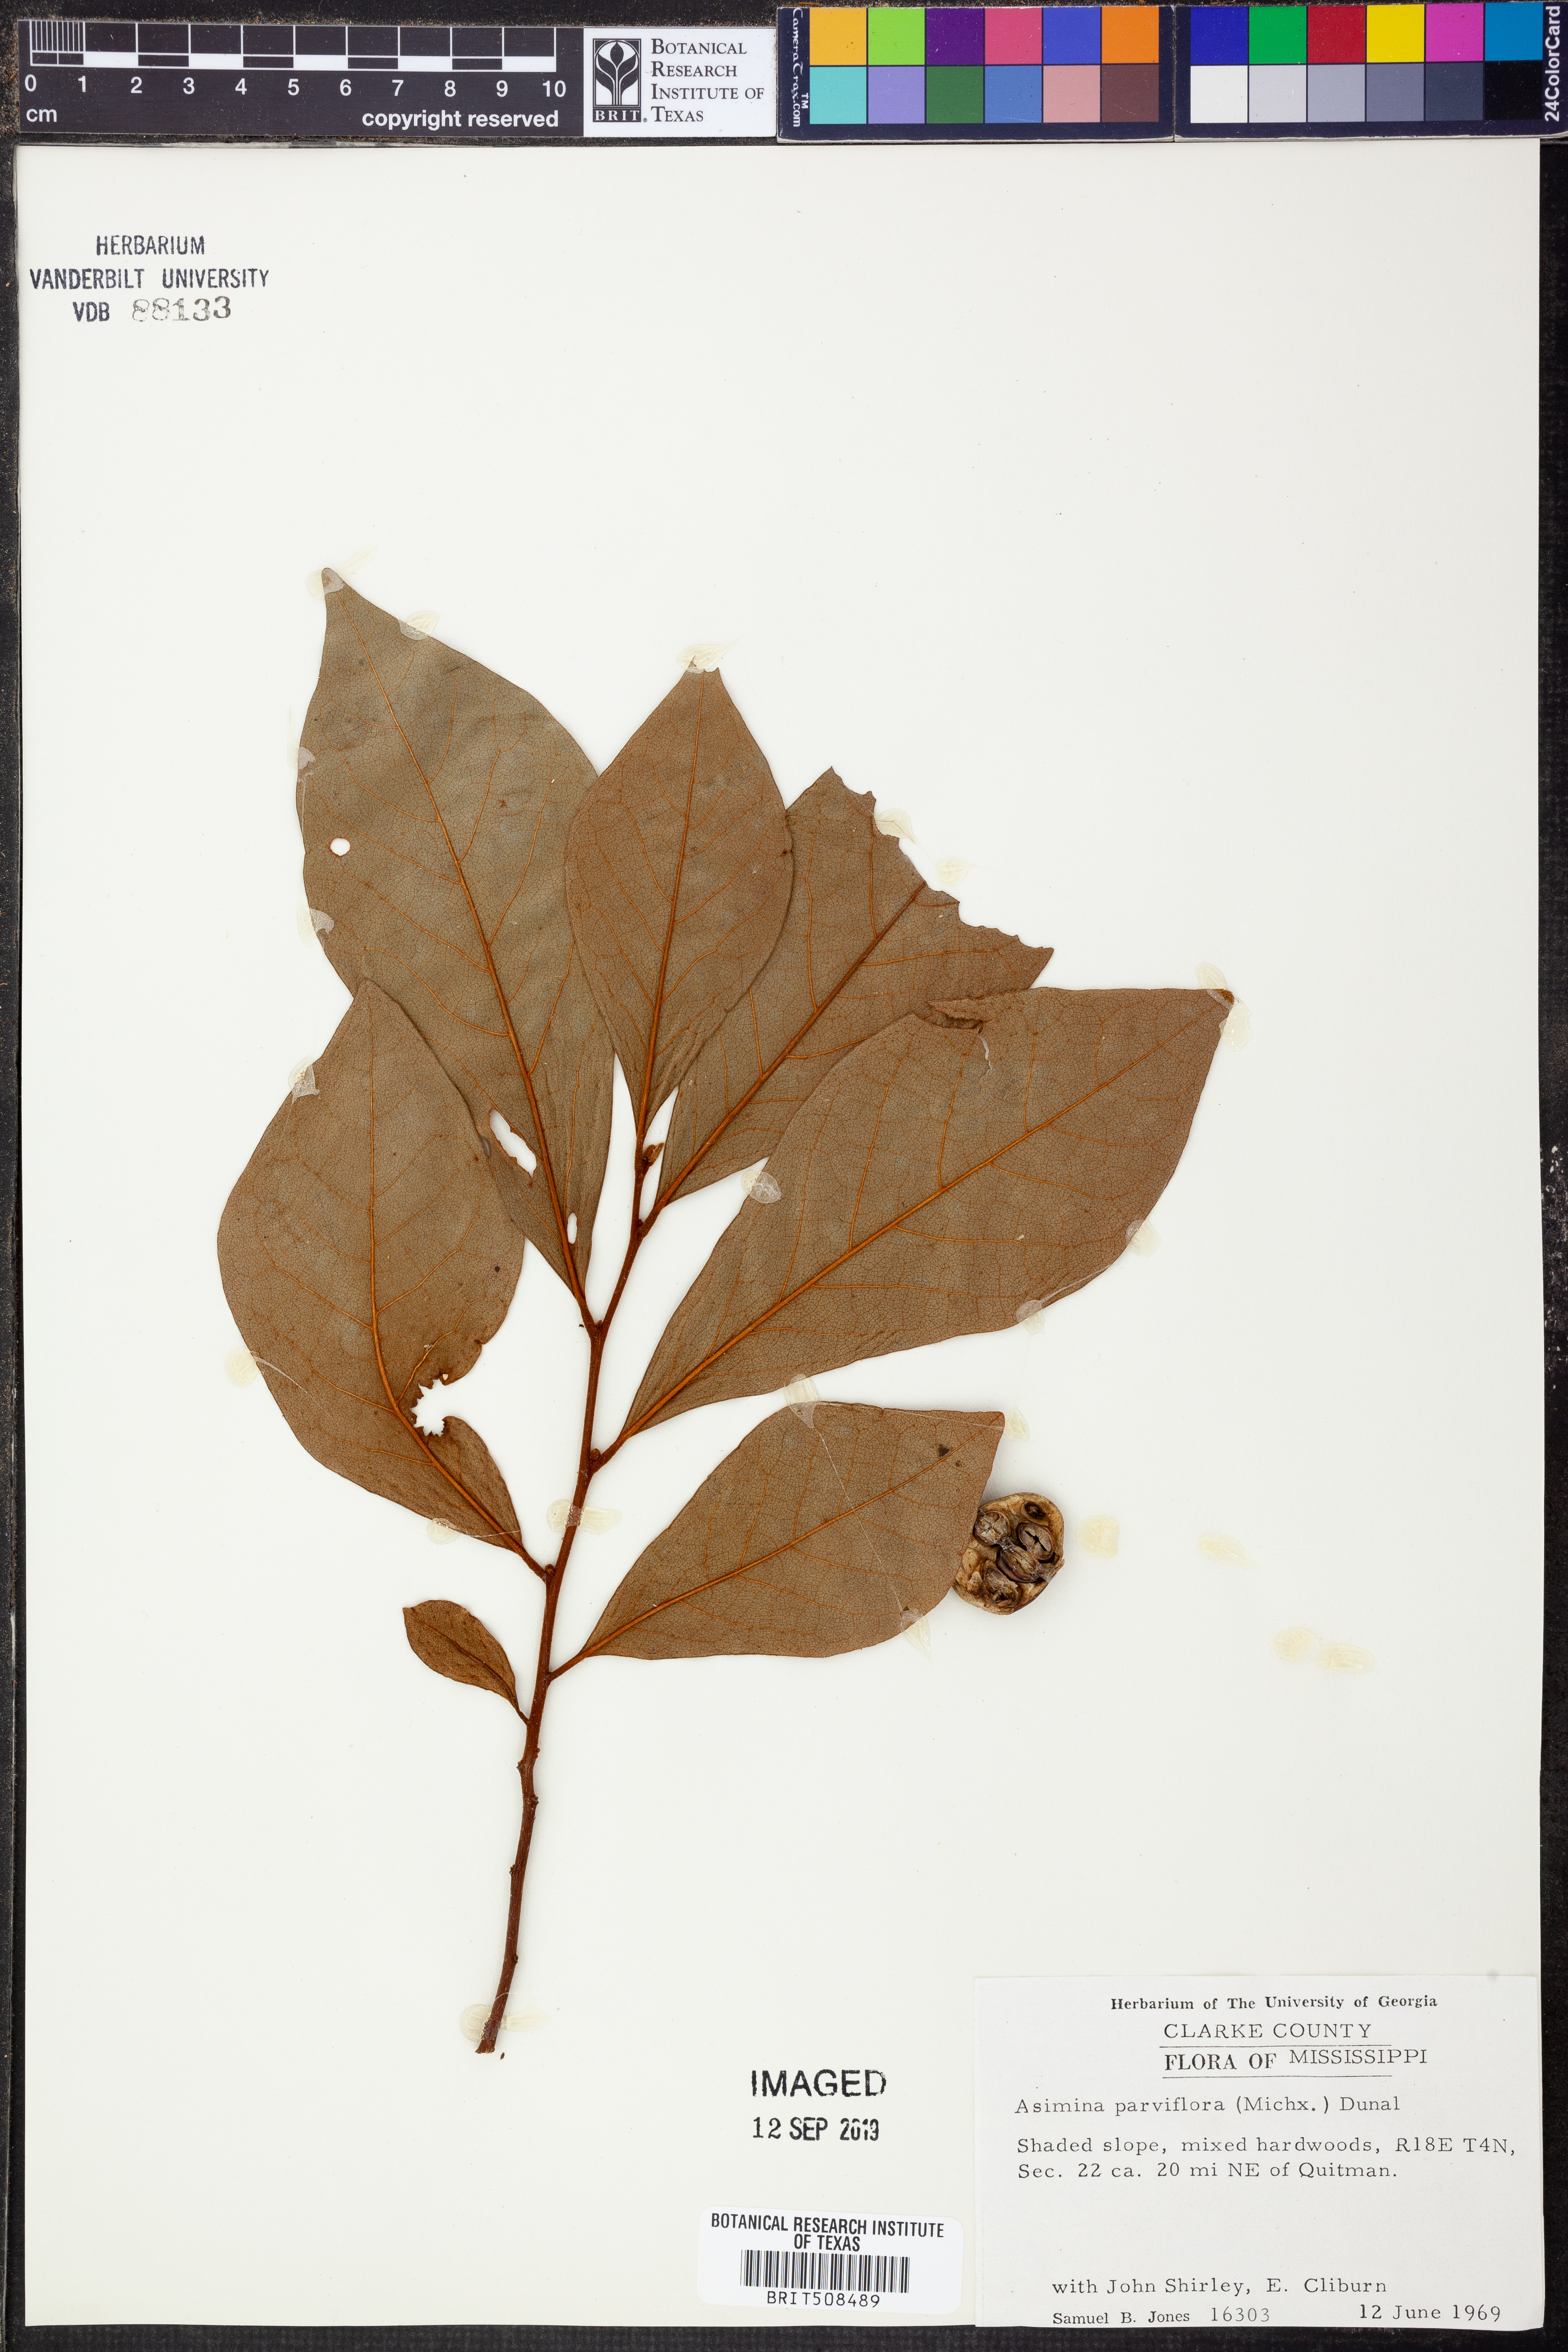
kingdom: Plantae
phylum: Tracheophyta
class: Magnoliopsida
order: Magnoliales
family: Annonaceae
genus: Asimina
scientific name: Asimina parviflora
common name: Dwarf pawpaw
